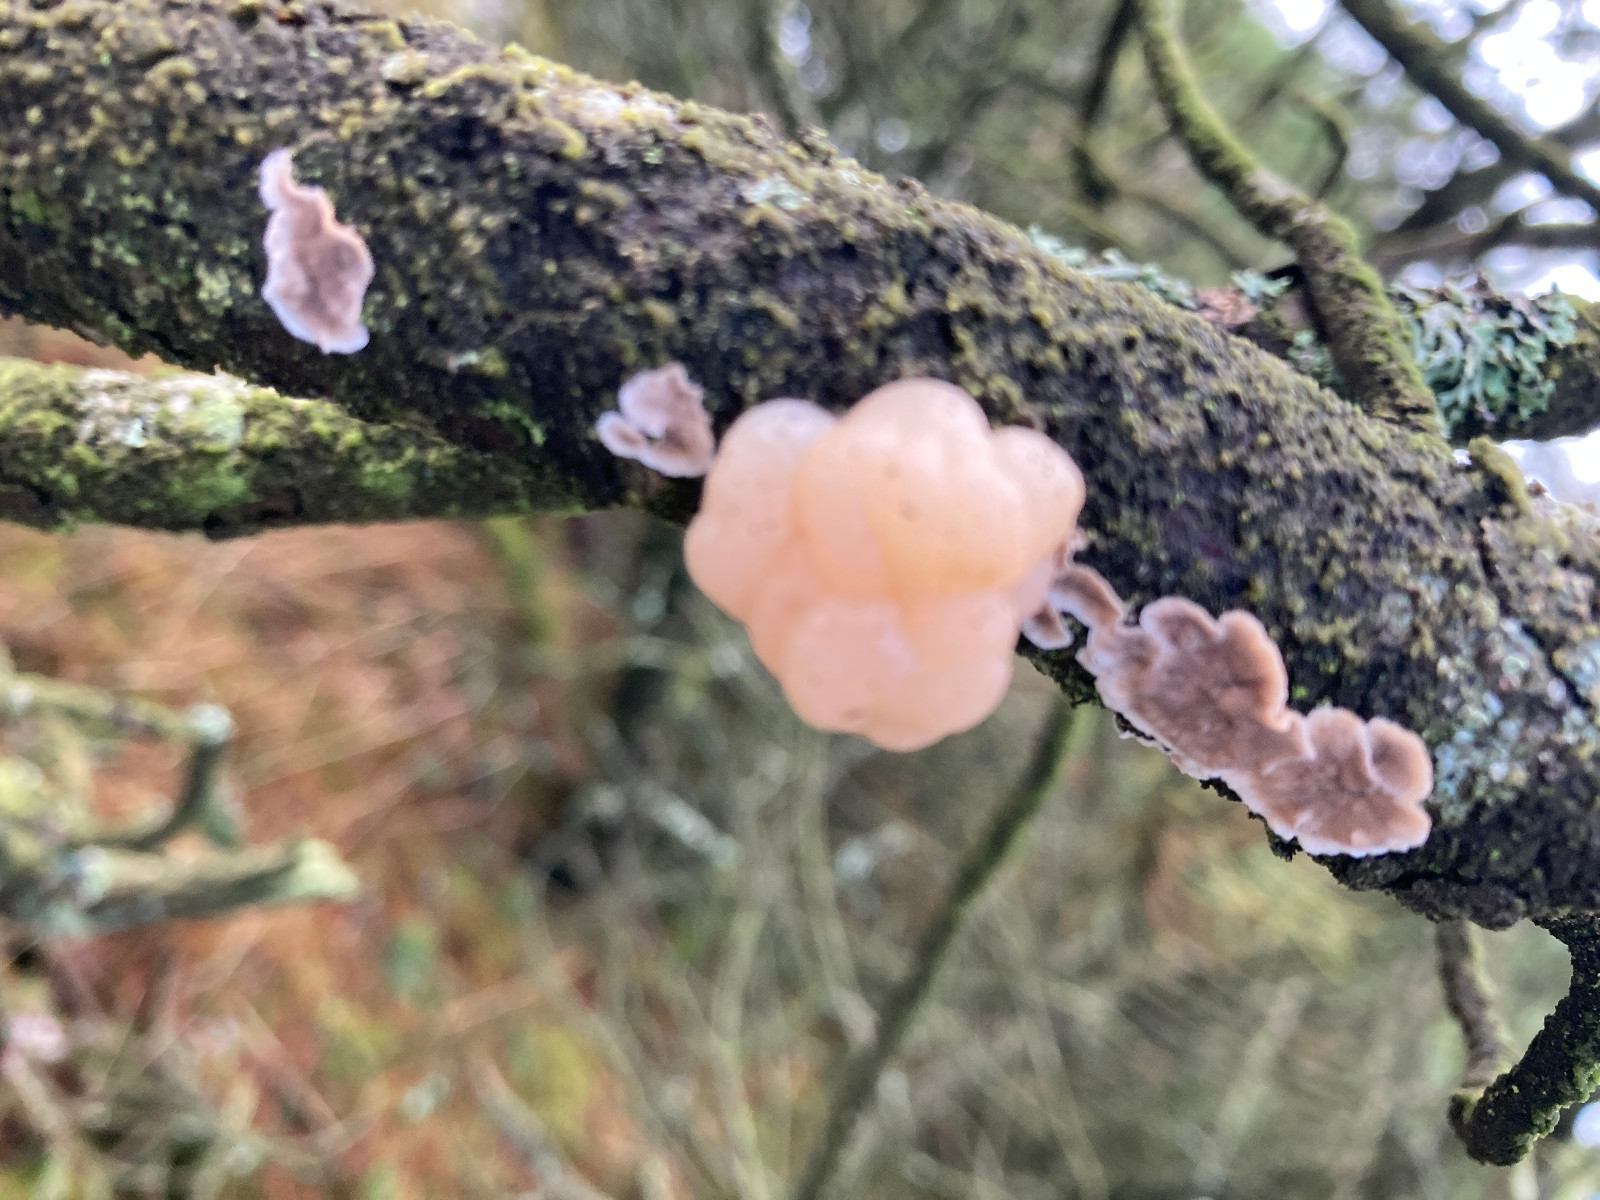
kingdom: Fungi
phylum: Basidiomycota
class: Tremellomycetes
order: Tremellales
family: Naemateliaceae
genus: Naematelia
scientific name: Naematelia encephala
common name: fyrre-bævresvamp
